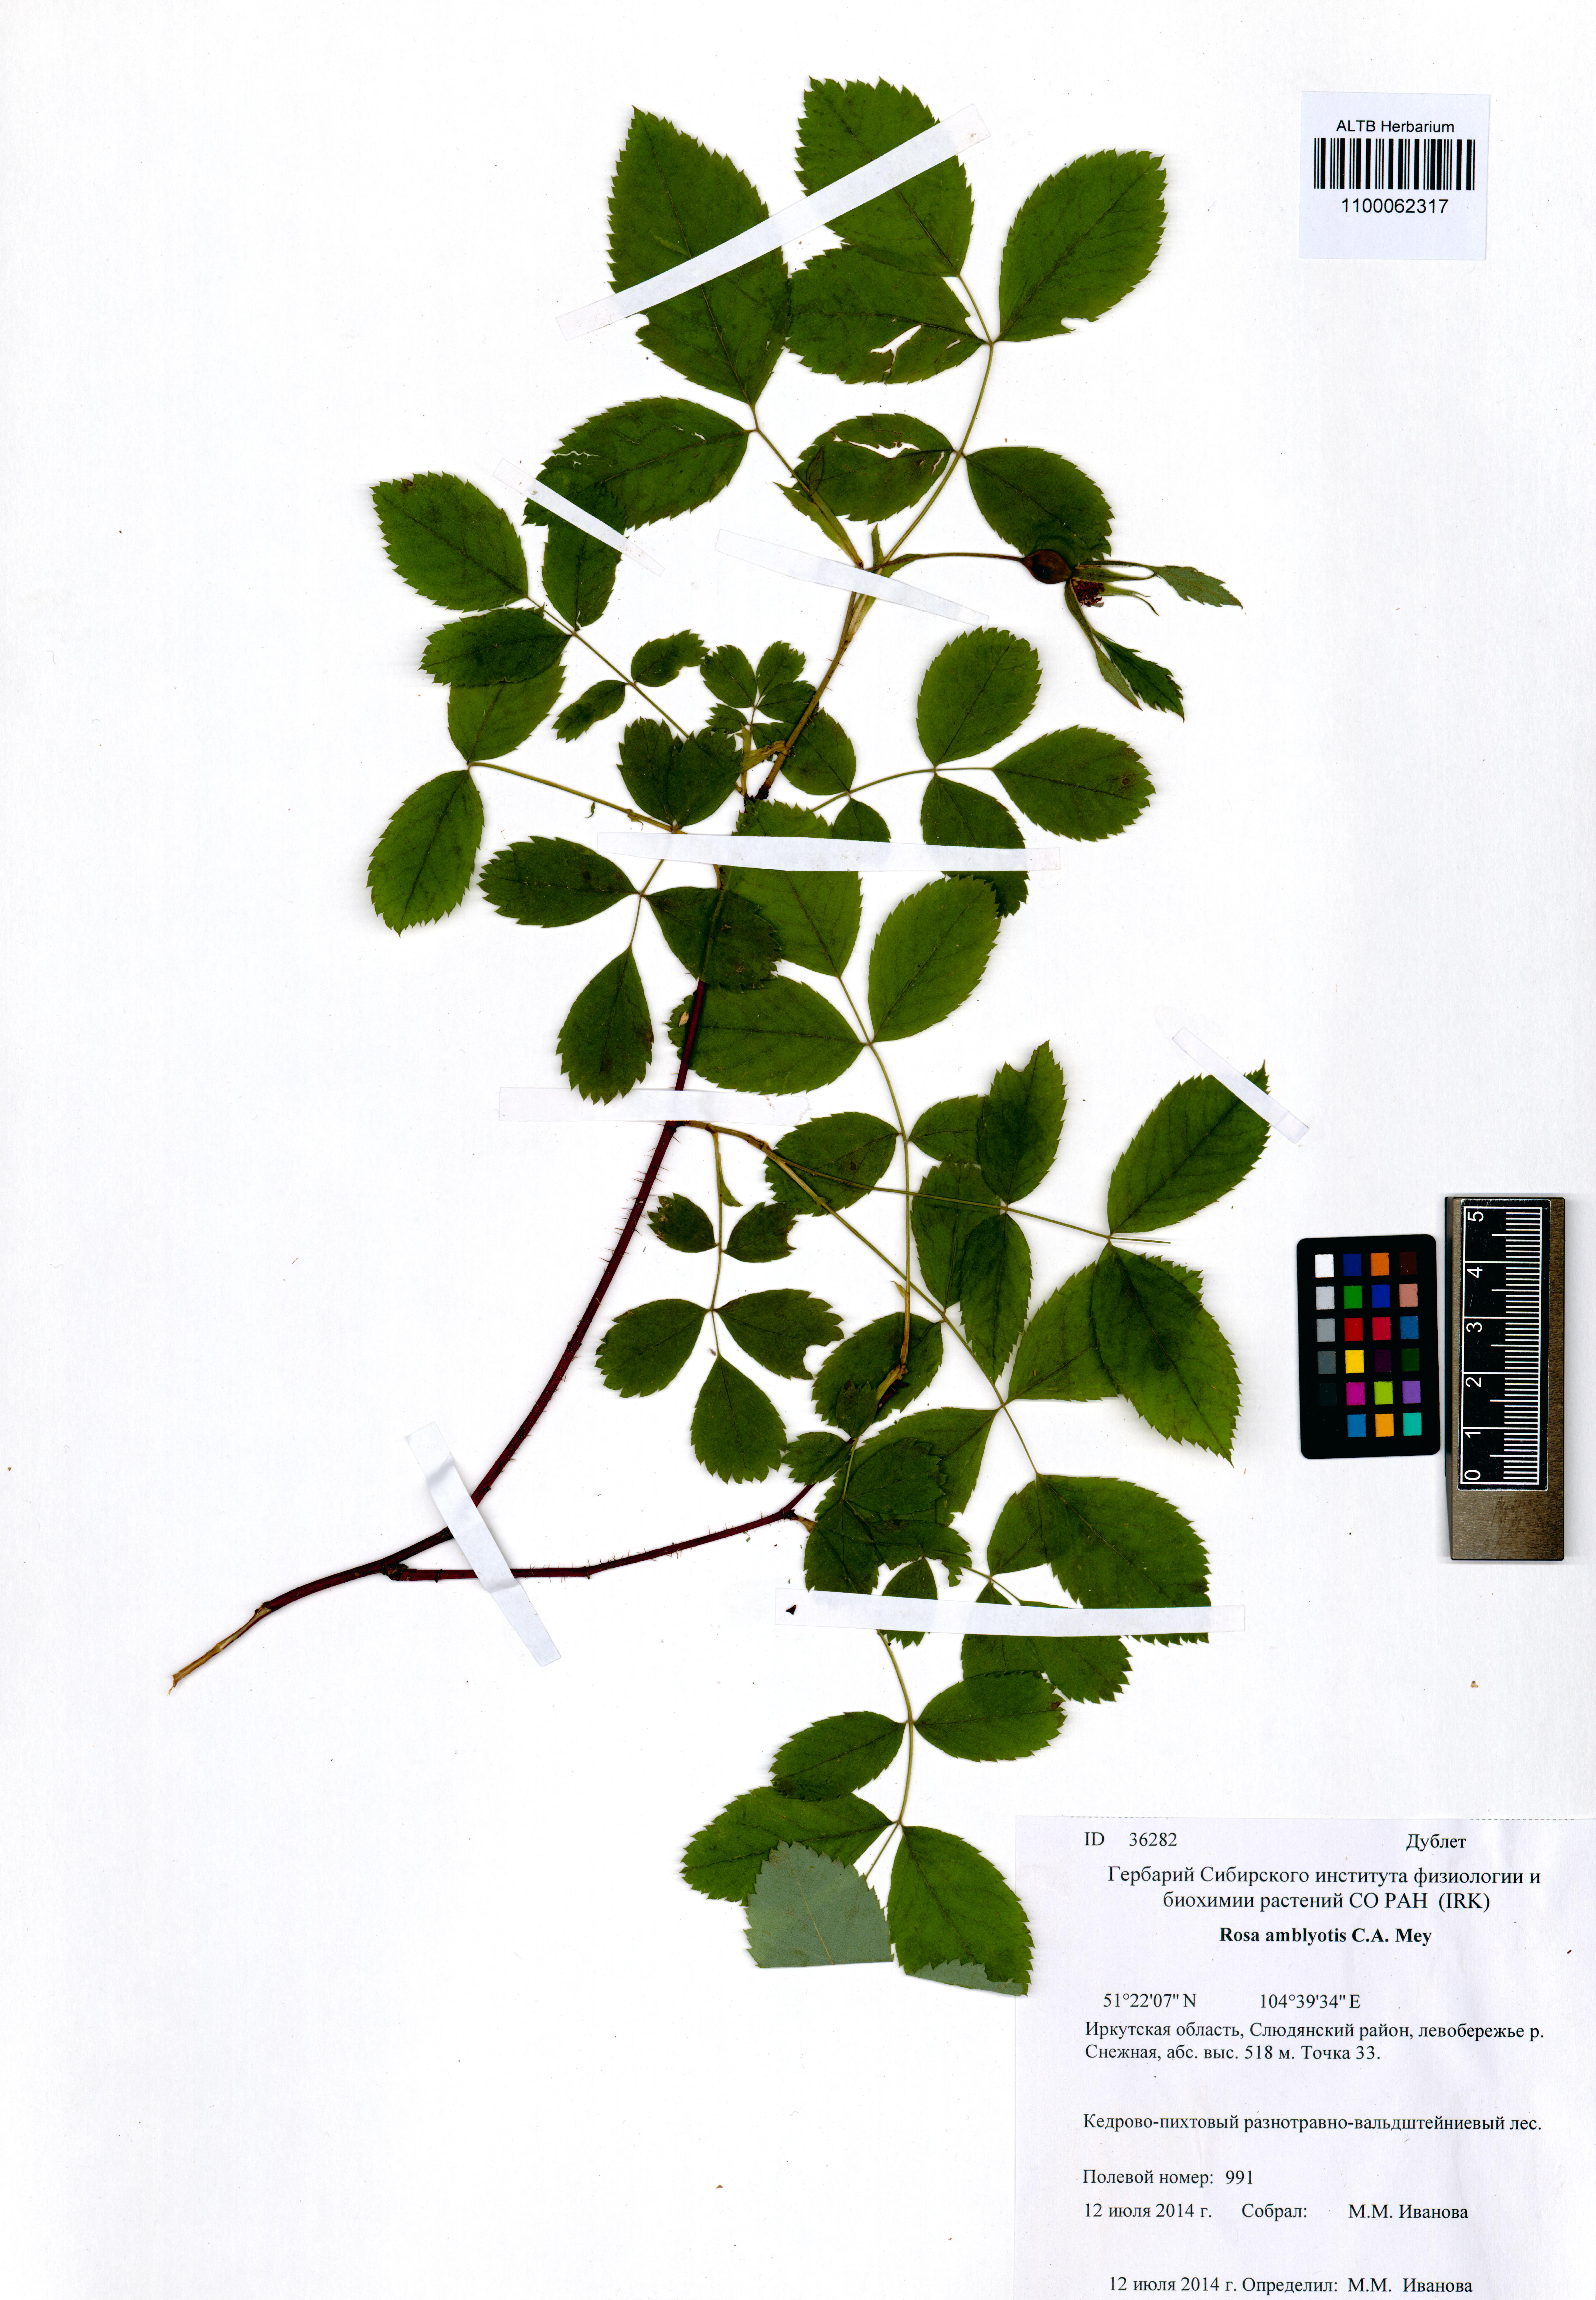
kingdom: Plantae
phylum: Tracheophyta
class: Magnoliopsida
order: Rosales
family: Rosaceae
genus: Rosa
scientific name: Rosa davurica
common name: Amur rose
